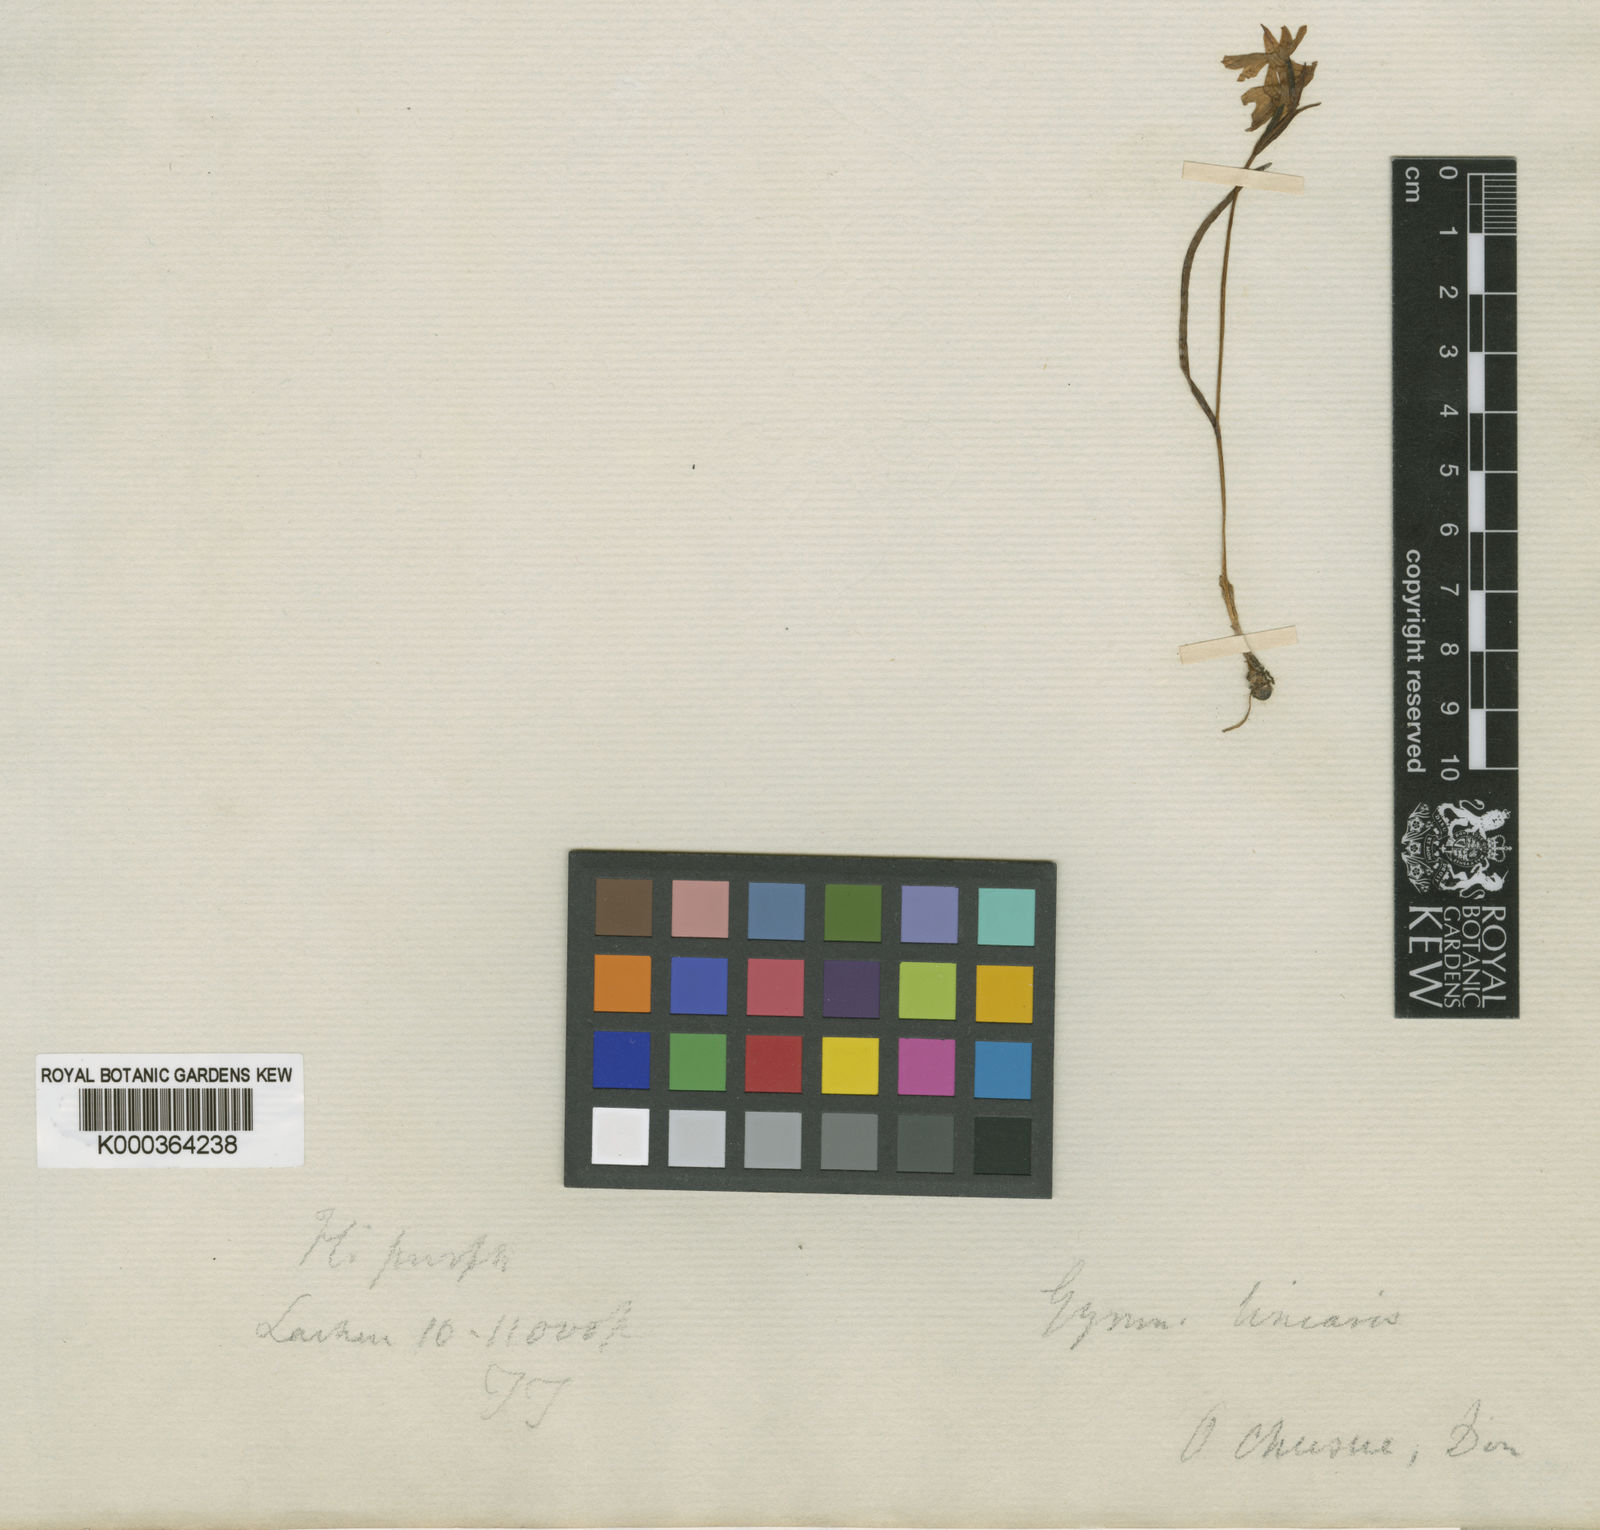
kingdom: Plantae
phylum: Tracheophyta
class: Liliopsida
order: Asparagales
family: Orchidaceae
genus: Hemipilia
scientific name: Hemipilia
